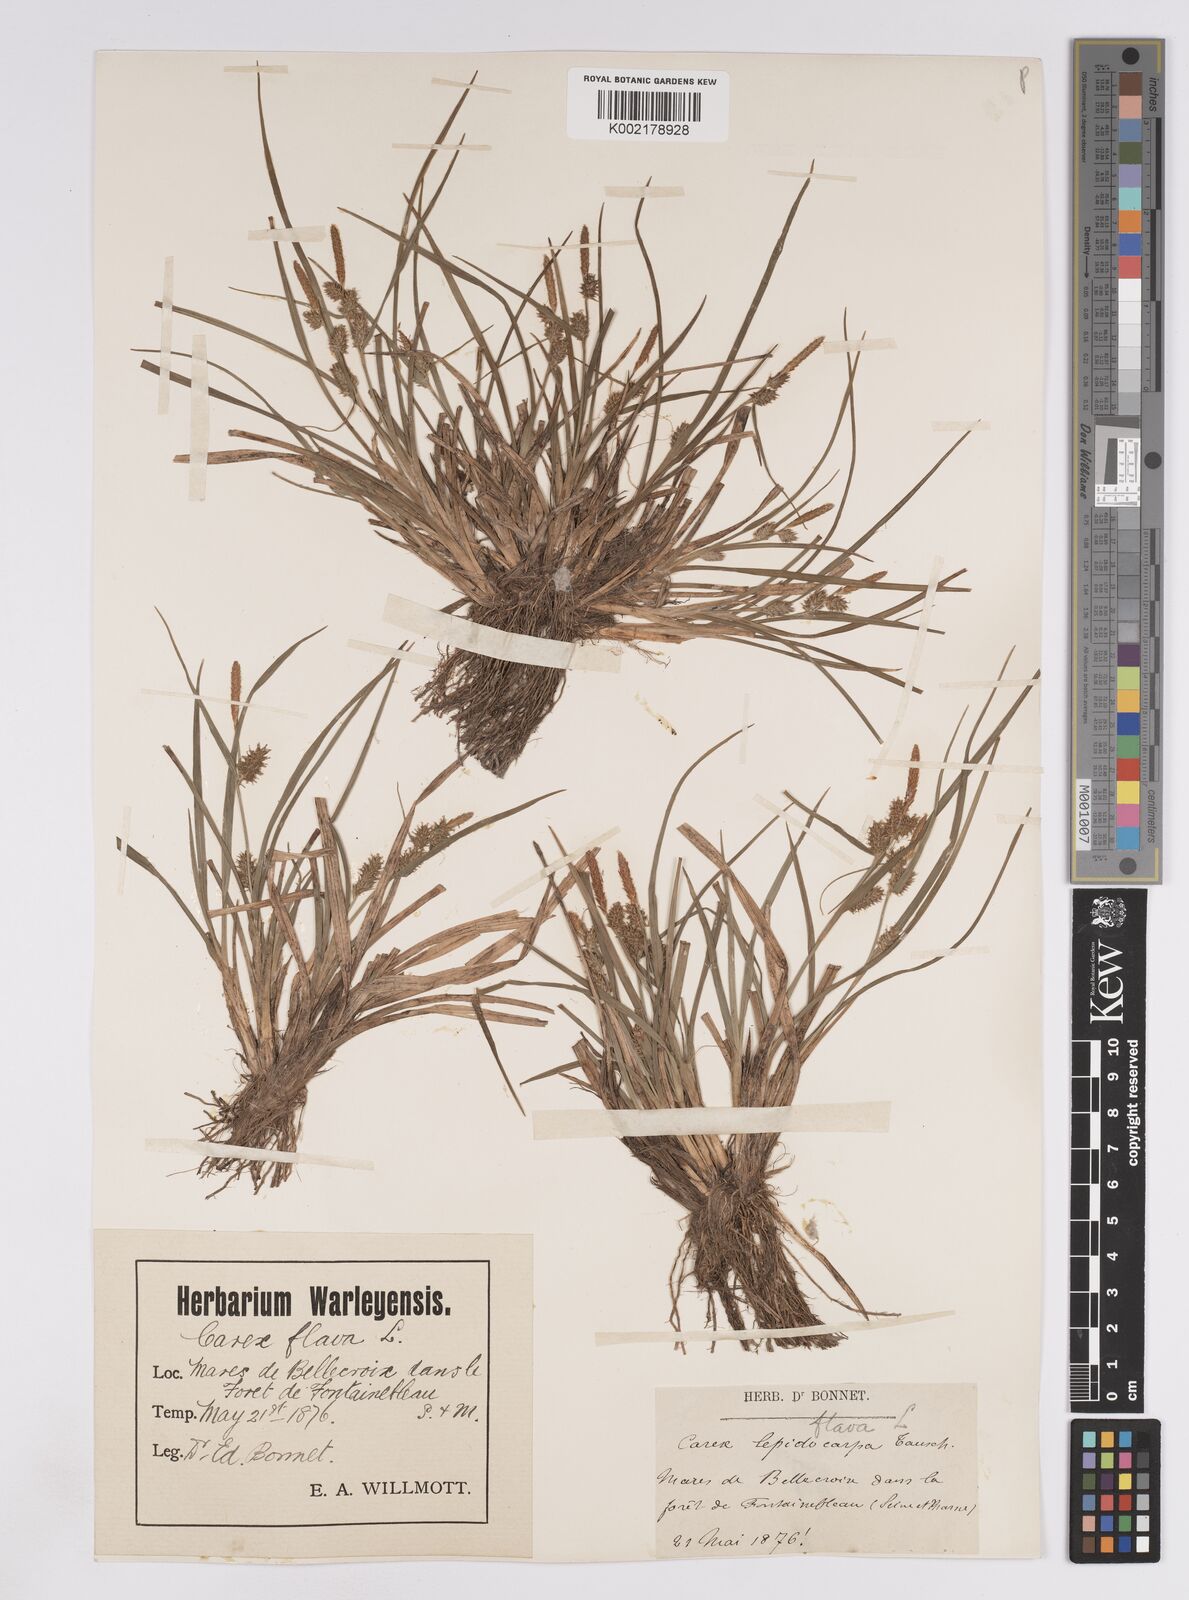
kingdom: Plantae
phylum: Tracheophyta
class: Liliopsida
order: Poales
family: Cyperaceae
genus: Carex
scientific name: Carex lepidocarpa
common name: Long-stalked yellow-sedge
